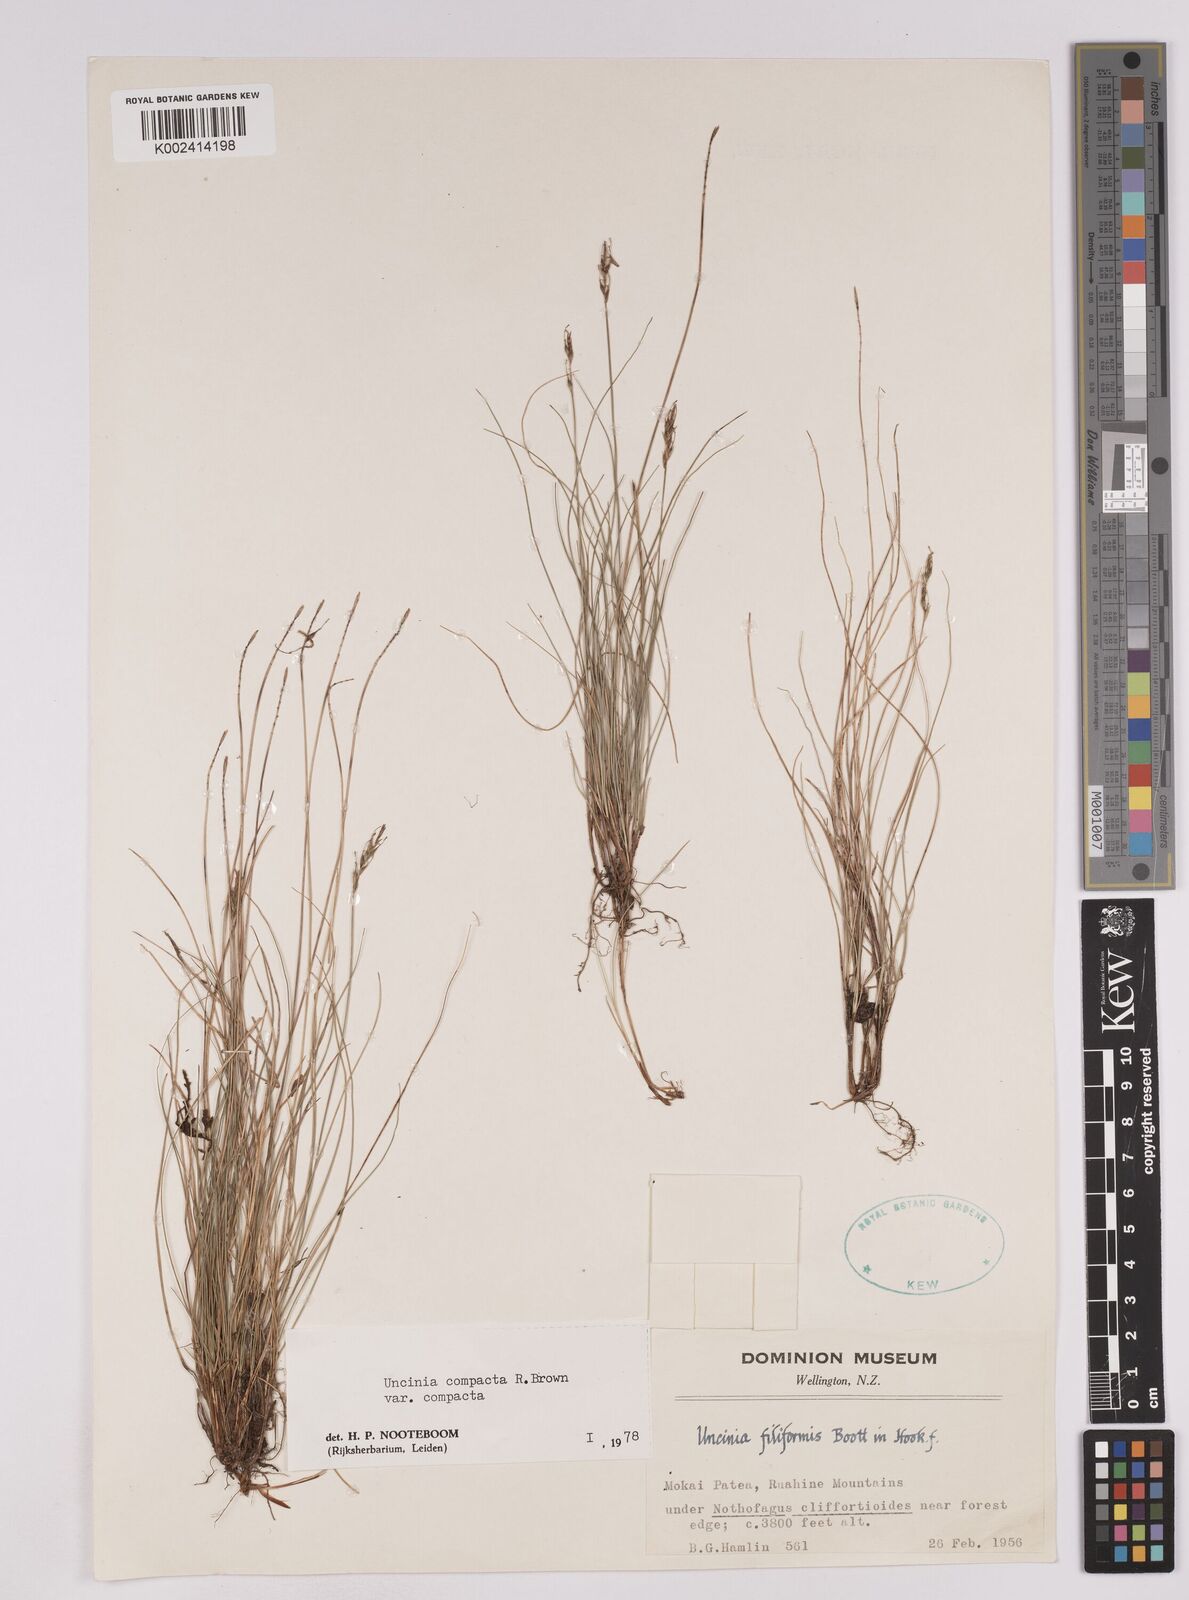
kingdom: Plantae
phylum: Tracheophyta
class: Liliopsida
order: Poales
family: Cyperaceae
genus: Carex
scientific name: Carex austrocompacta
